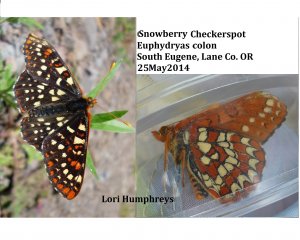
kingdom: Animalia
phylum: Arthropoda
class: Insecta
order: Lepidoptera
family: Nymphalidae
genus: Occidryas
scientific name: Occidryas colon
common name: Snowberry Checkerspot
